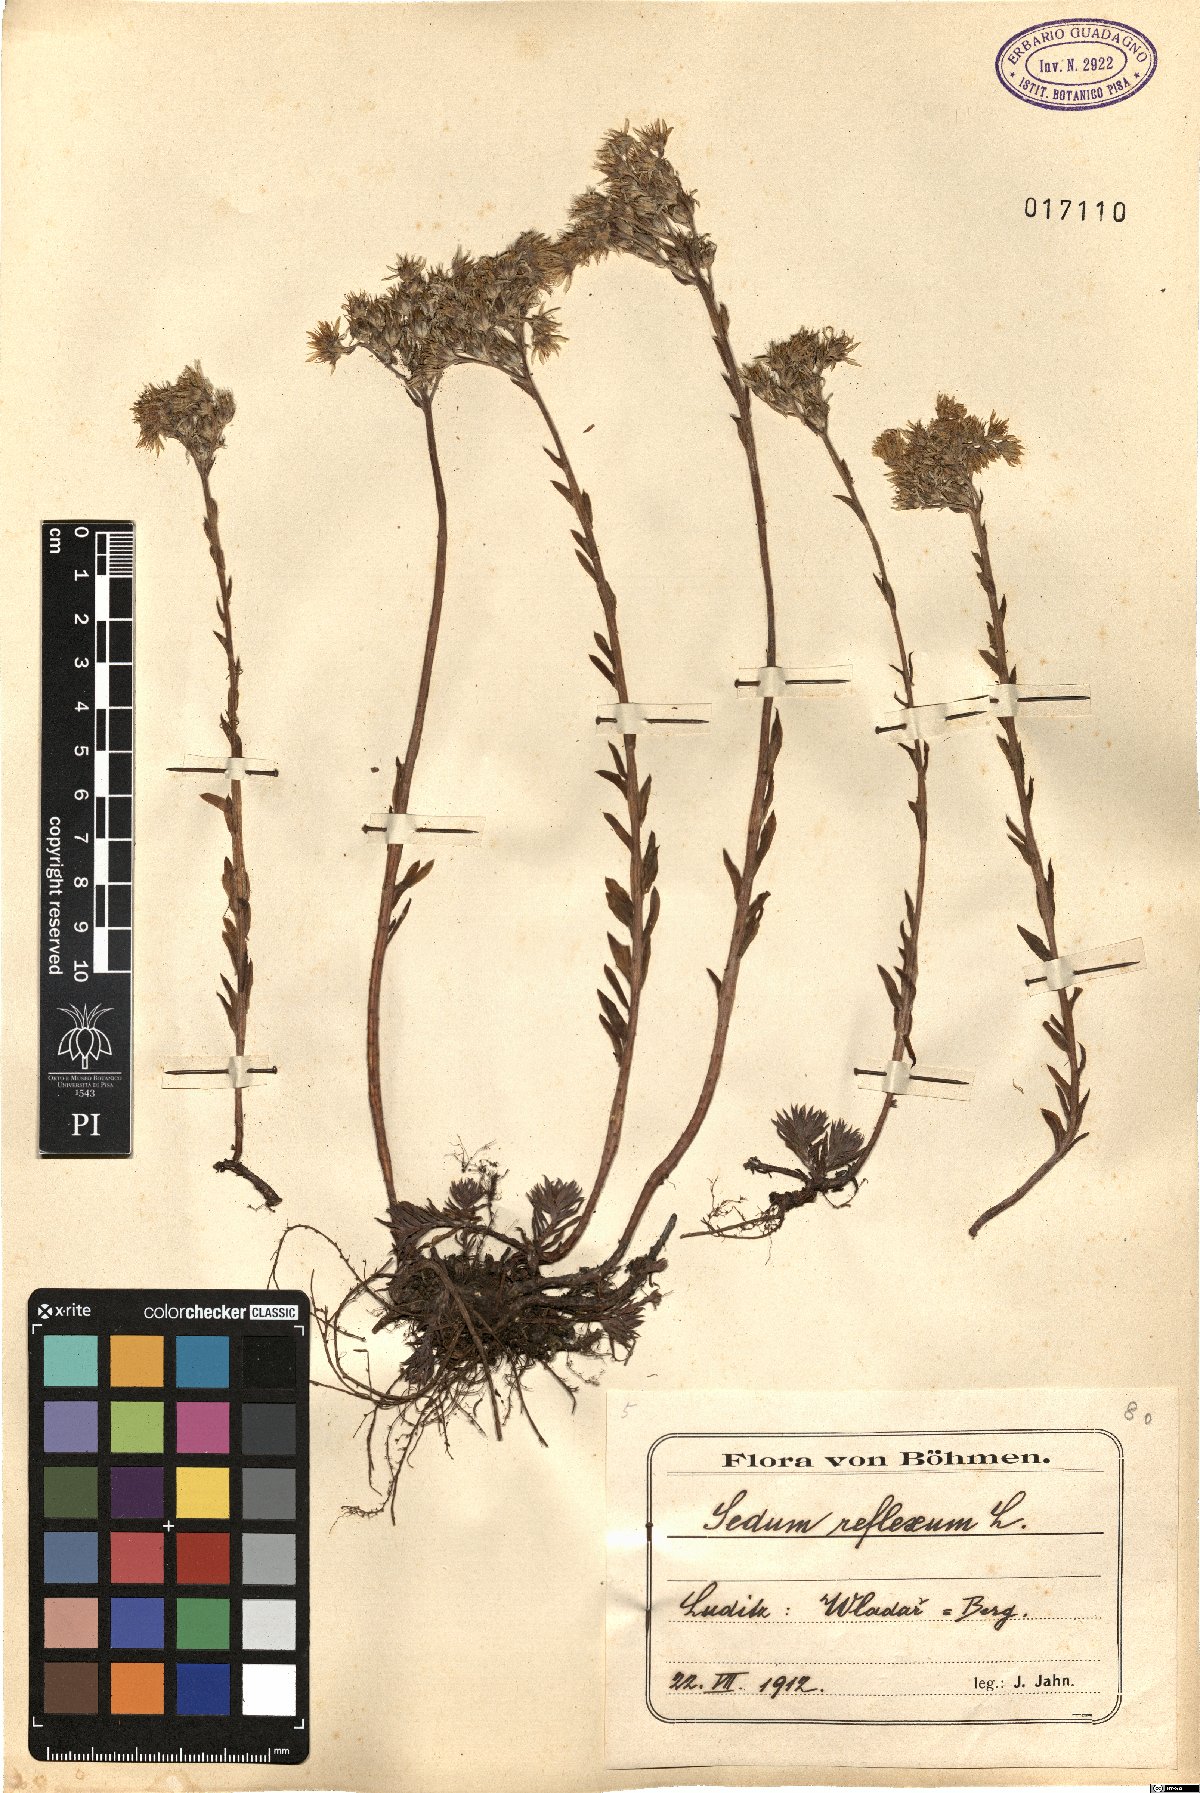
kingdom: Plantae
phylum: Tracheophyta
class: Magnoliopsida
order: Saxifragales
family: Crassulaceae
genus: Petrosedum
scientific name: Petrosedum rupestre
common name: Jenny's stonecrop
